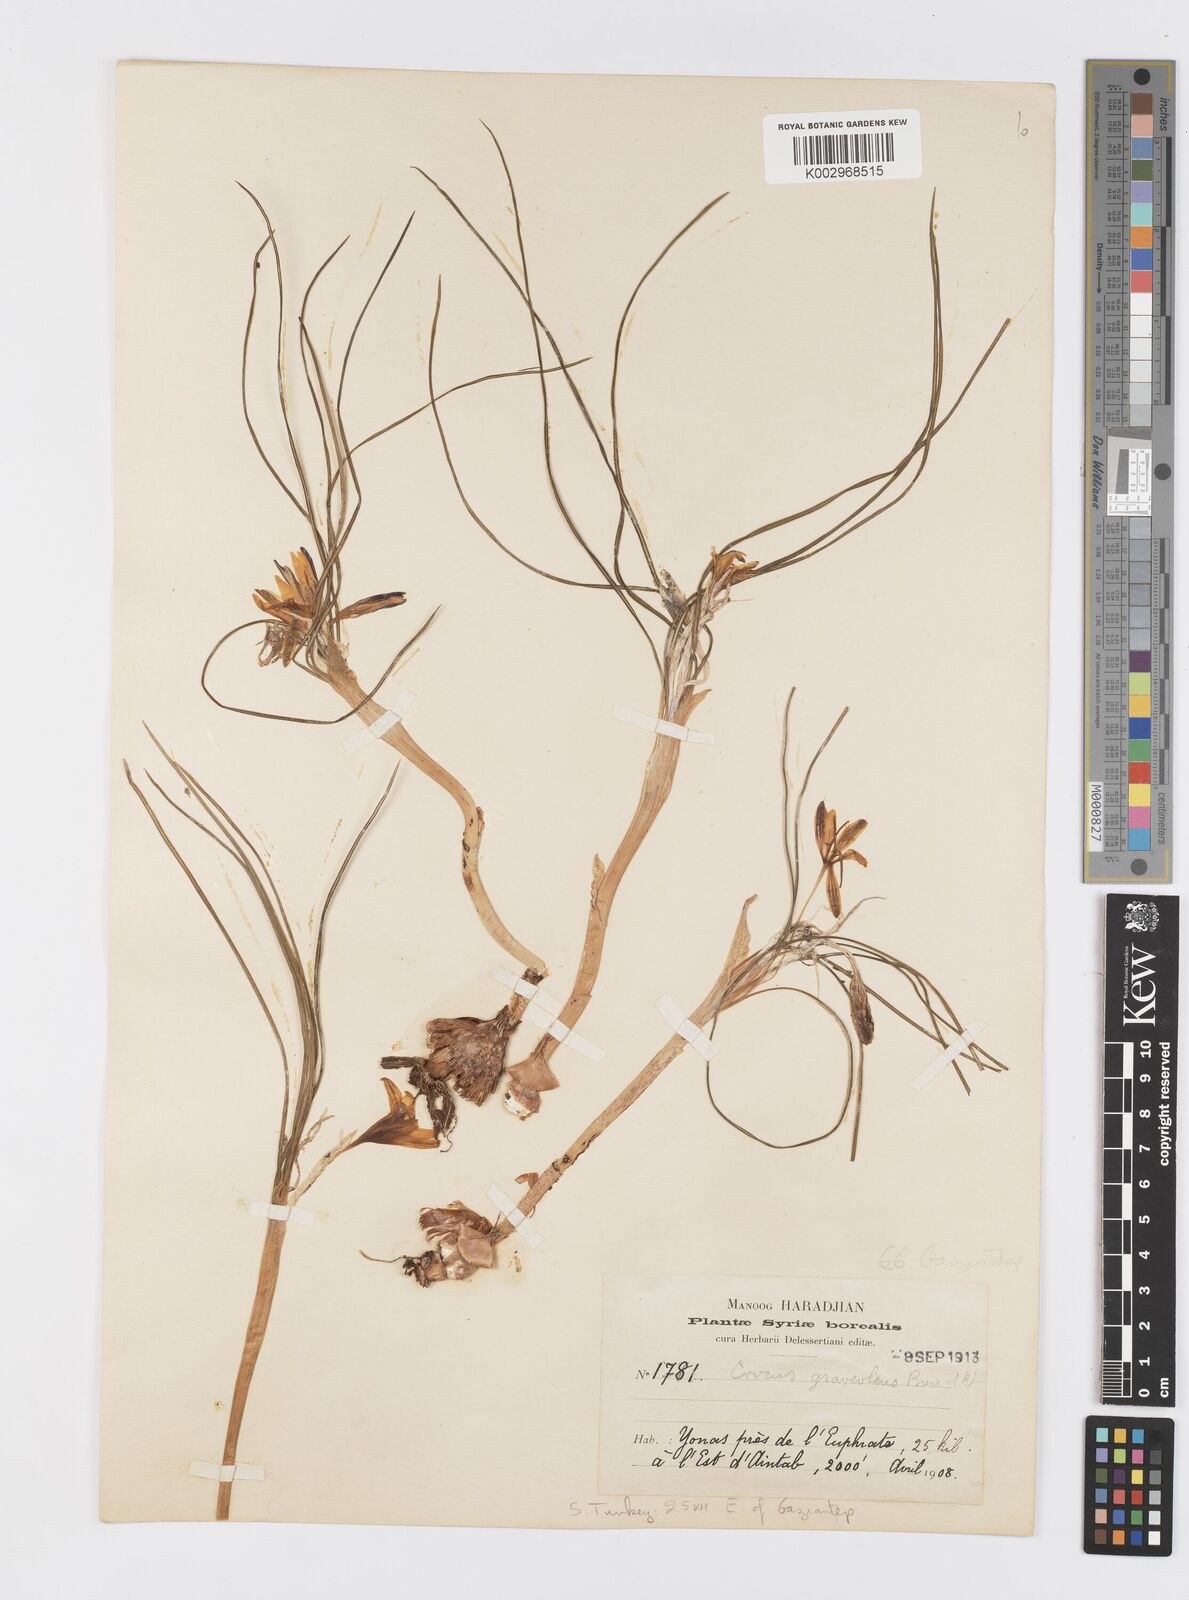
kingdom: Plantae
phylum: Tracheophyta
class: Liliopsida
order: Asparagales
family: Iridaceae
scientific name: Iridaceae
